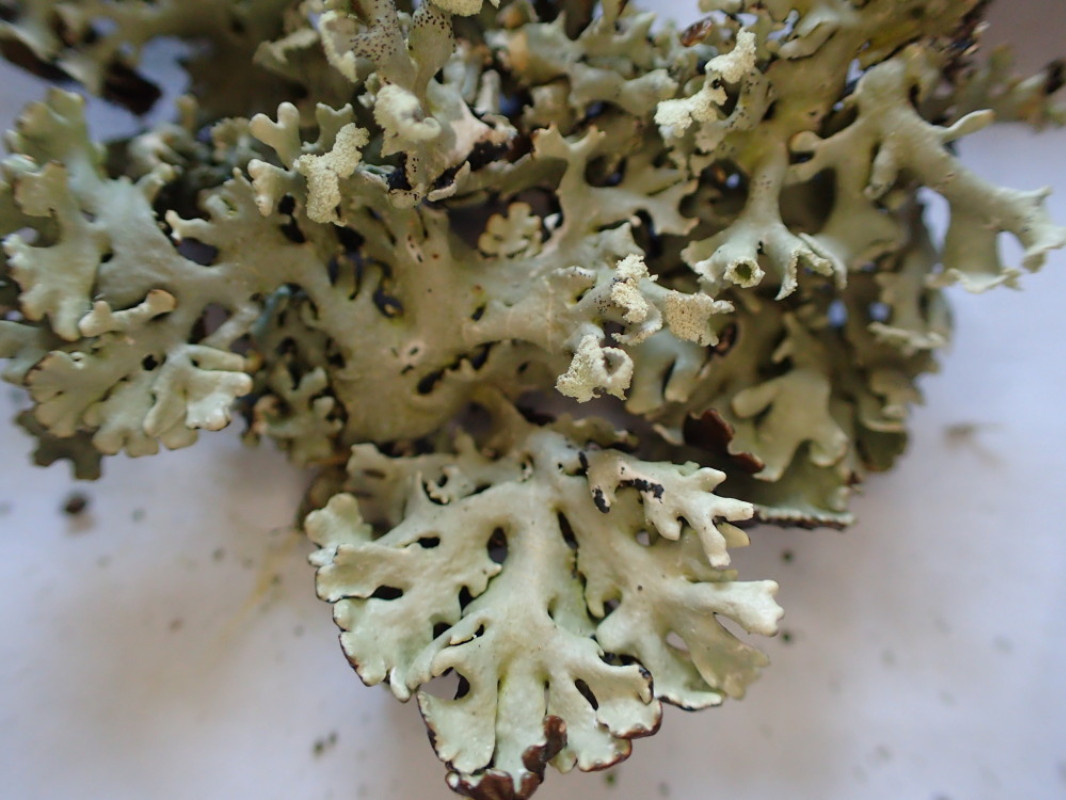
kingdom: Fungi
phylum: Ascomycota
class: Lecanoromycetes
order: Lecanorales
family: Parmeliaceae
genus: Hypogymnia
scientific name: Hypogymnia physodes
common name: almindelig kvistlav
